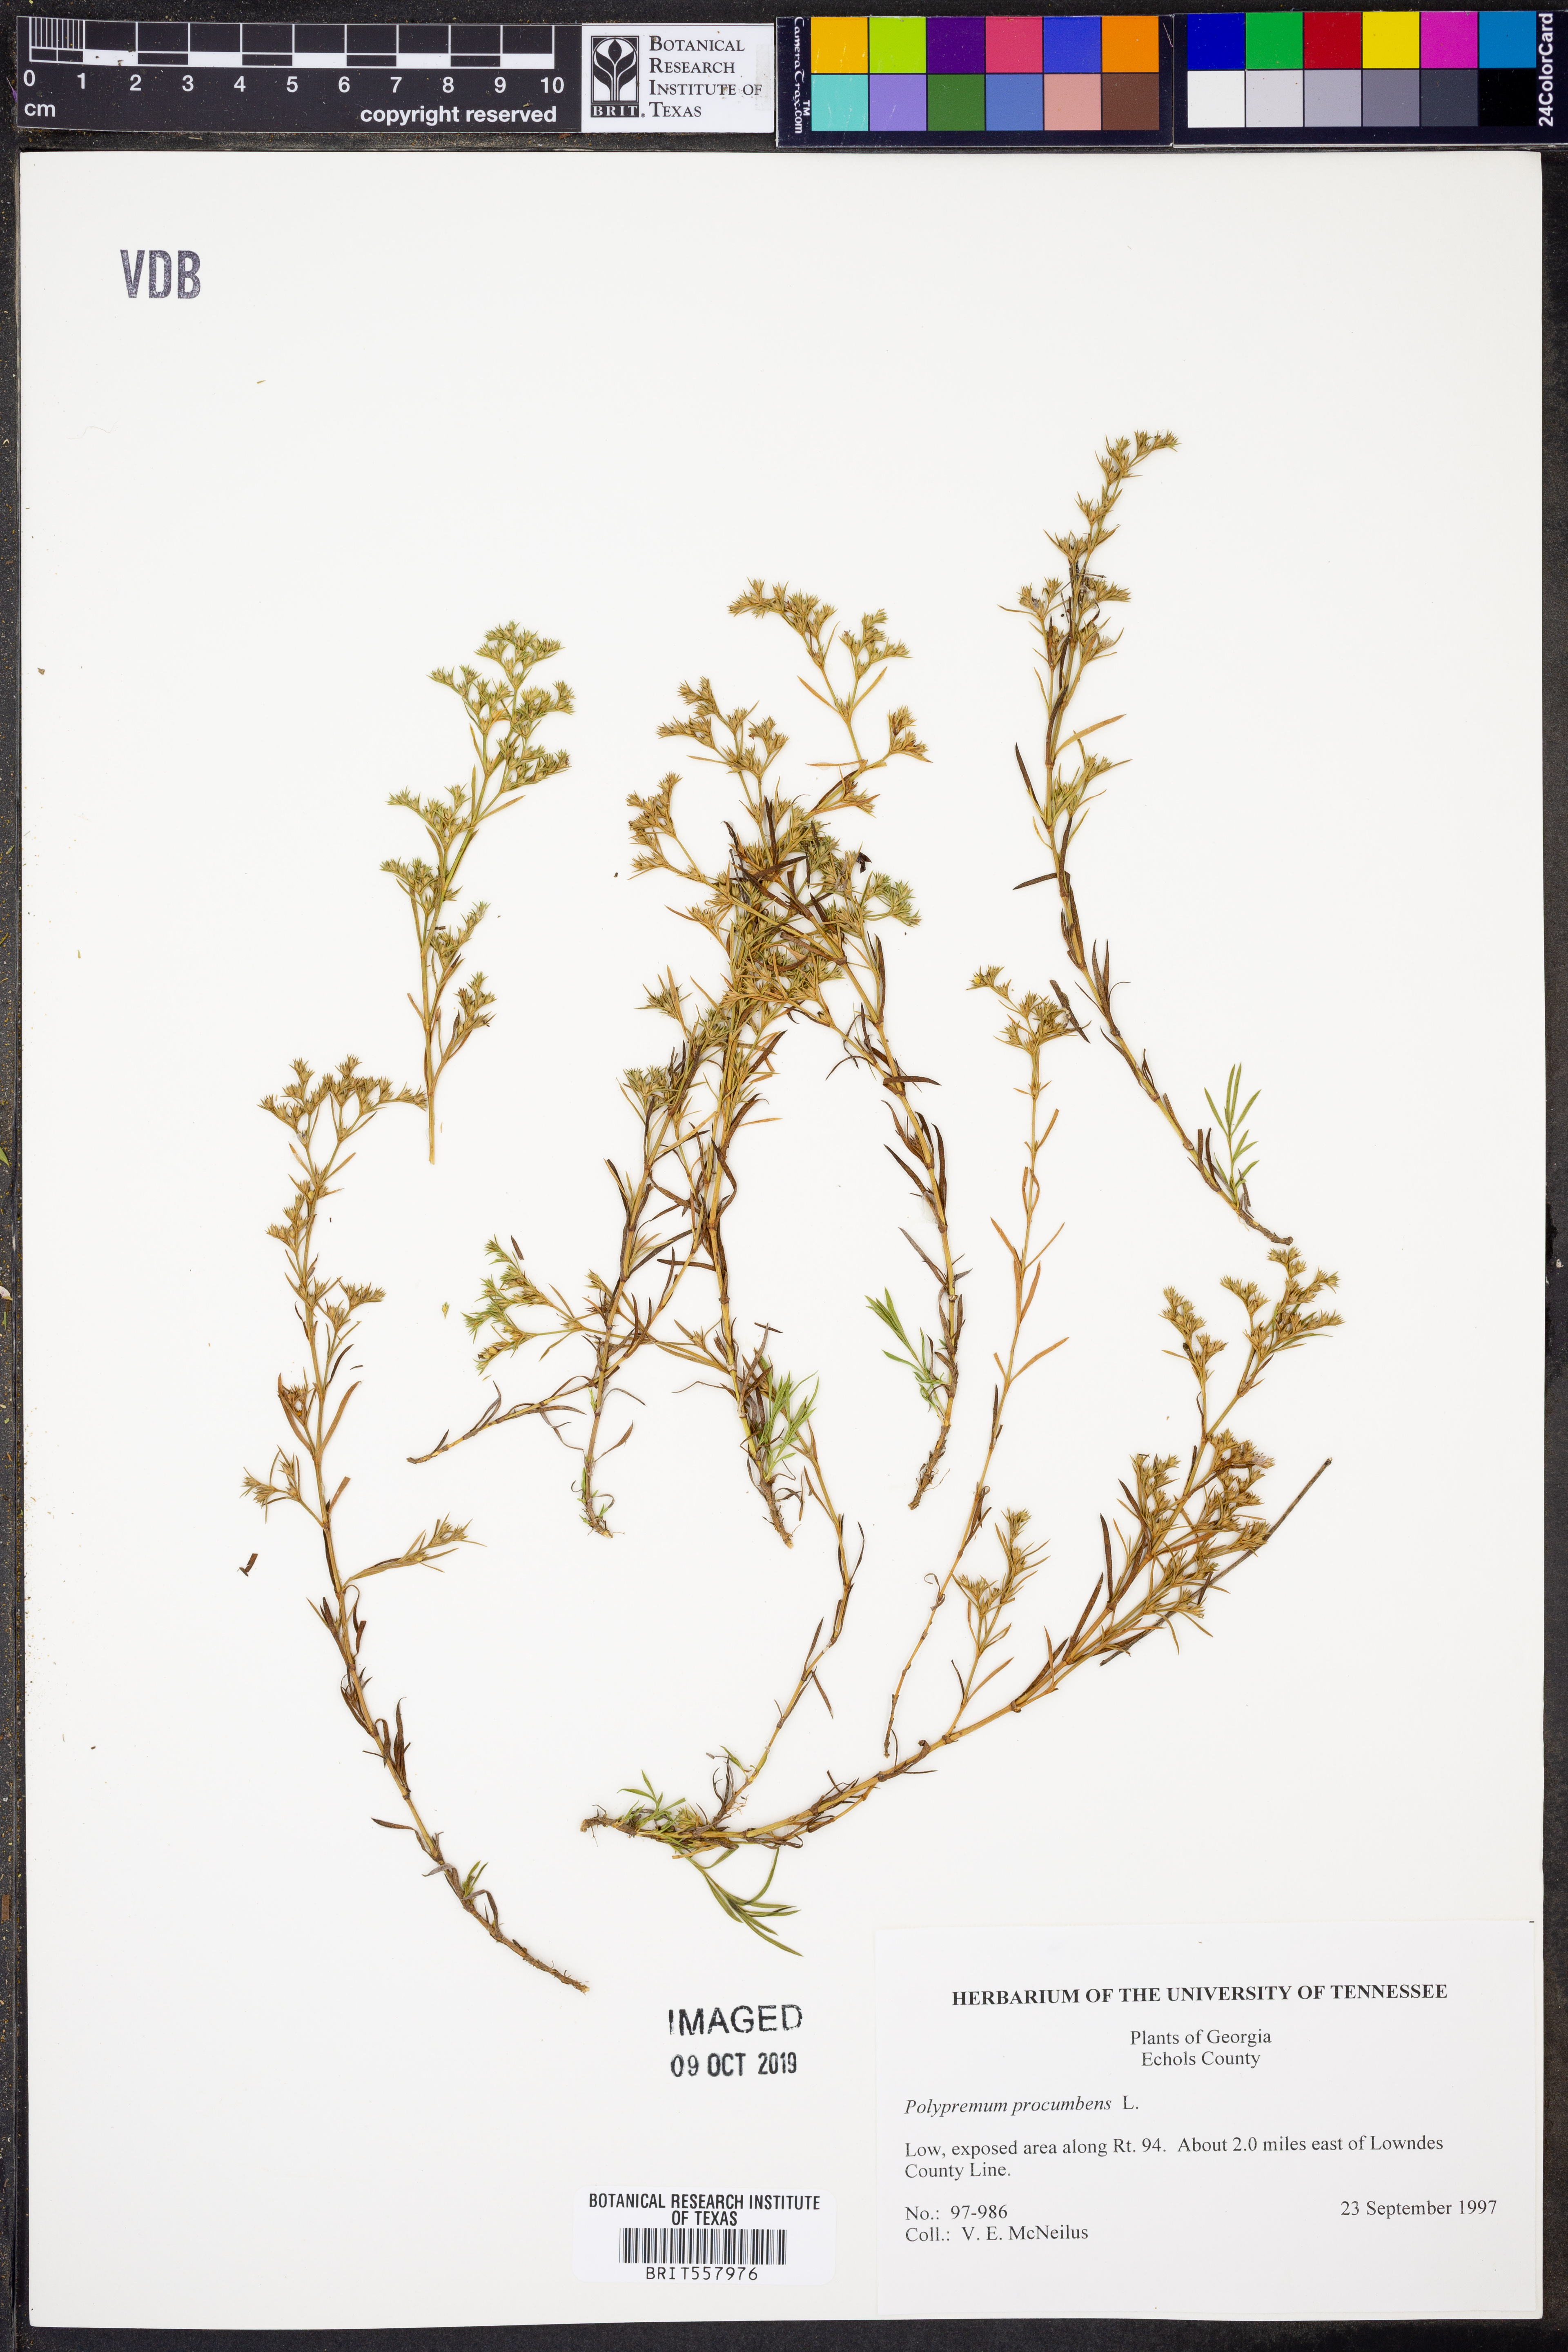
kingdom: Plantae
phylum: Tracheophyta
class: Magnoliopsida
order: Lamiales
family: Tetrachondraceae
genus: Polypremum
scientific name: Polypremum procumbens
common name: Juniper-leaf
